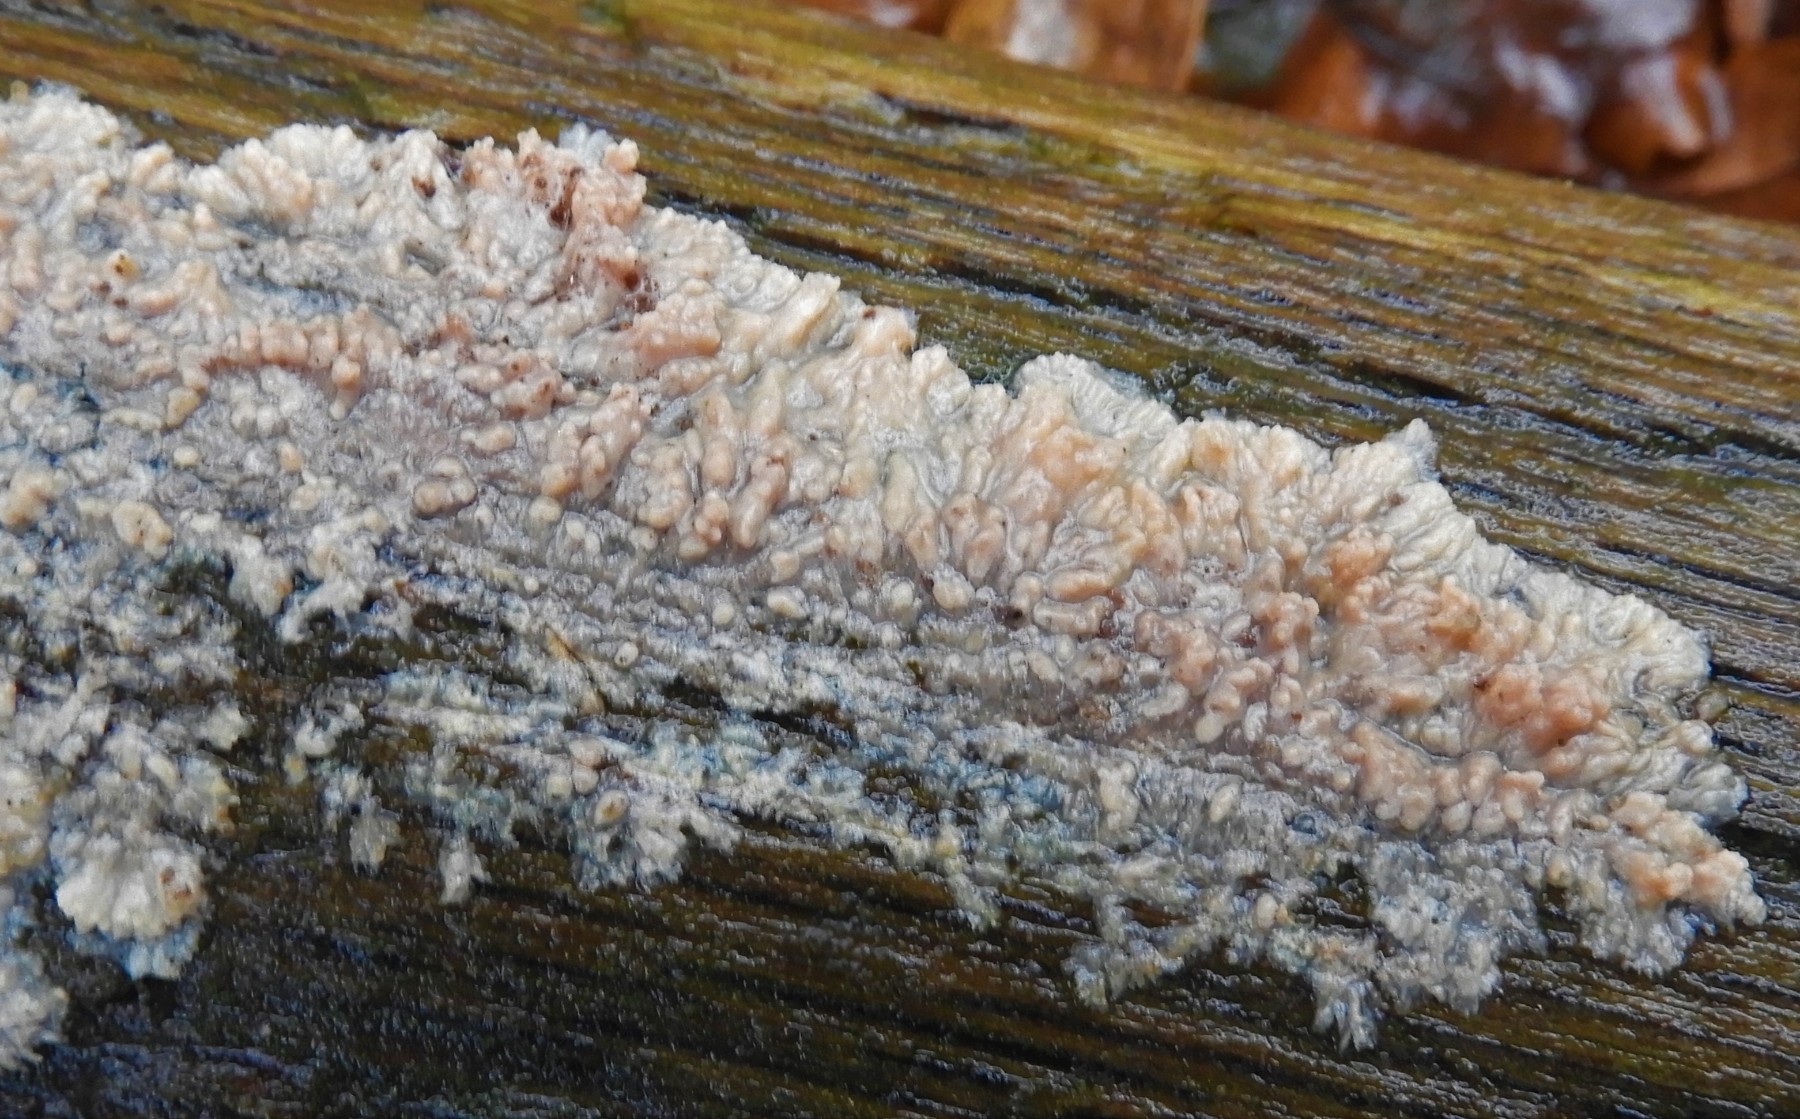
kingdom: Fungi
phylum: Basidiomycota
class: Agaricomycetes
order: Polyporales
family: Meruliaceae
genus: Phlebia
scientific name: Phlebia radiata
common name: stråle-åresvamp
